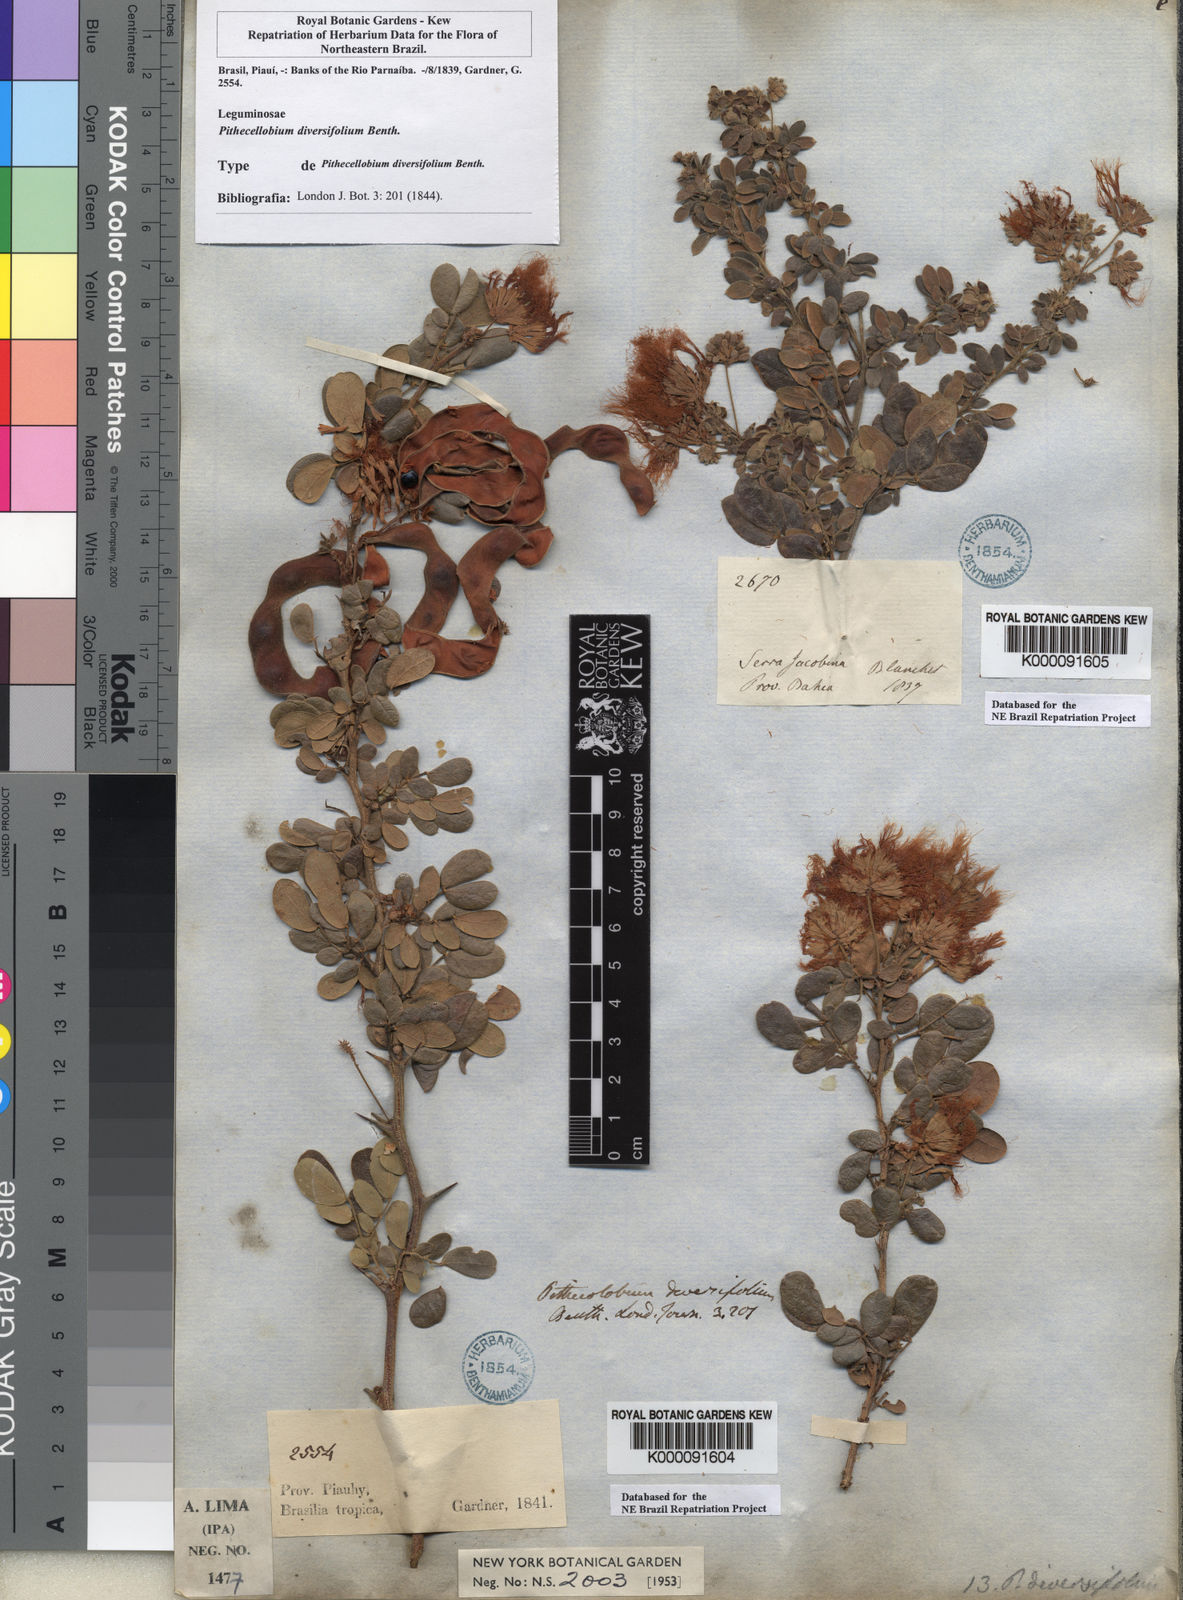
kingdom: Plantae
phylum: Tracheophyta
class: Magnoliopsida
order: Fabales
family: Fabaceae
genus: Pithecellobium
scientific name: Pithecellobium diversifolium
